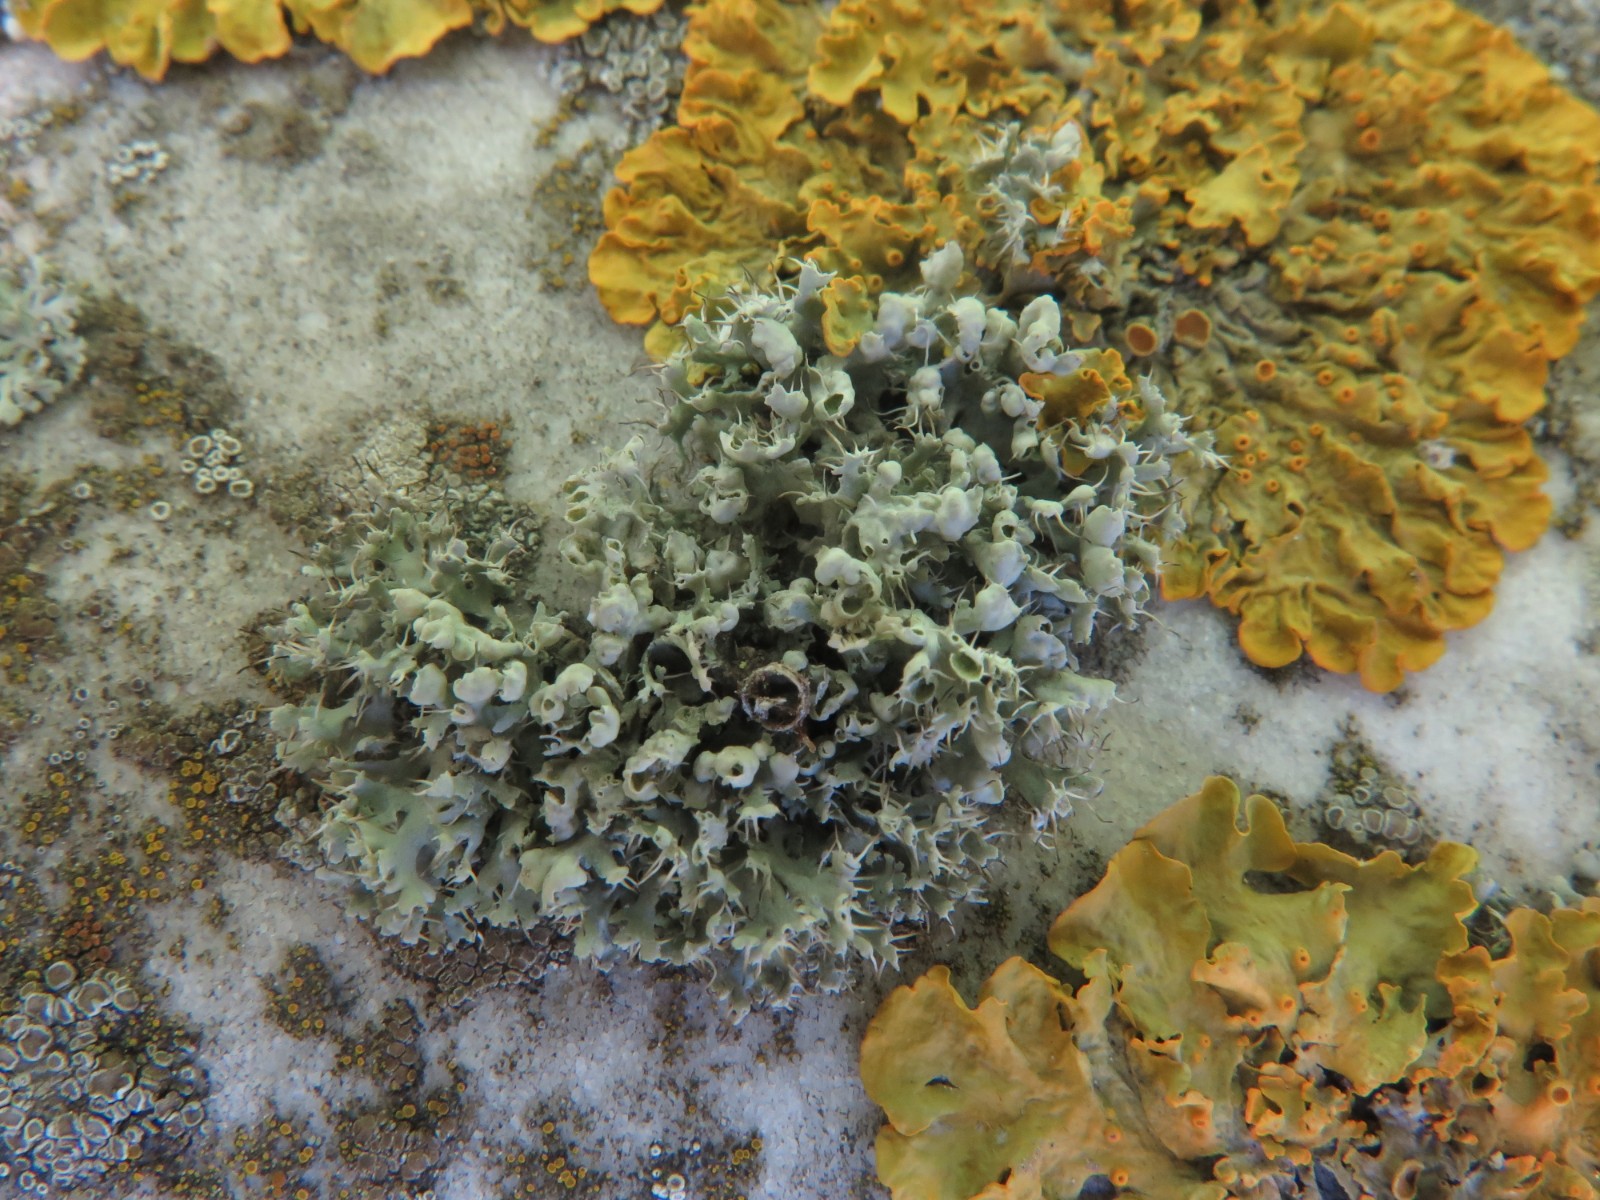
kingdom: Fungi
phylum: Ascomycota
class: Lecanoromycetes
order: Caliciales
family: Physciaceae
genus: Physcia
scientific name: Physcia adscendens
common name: hætte-rosetlav
